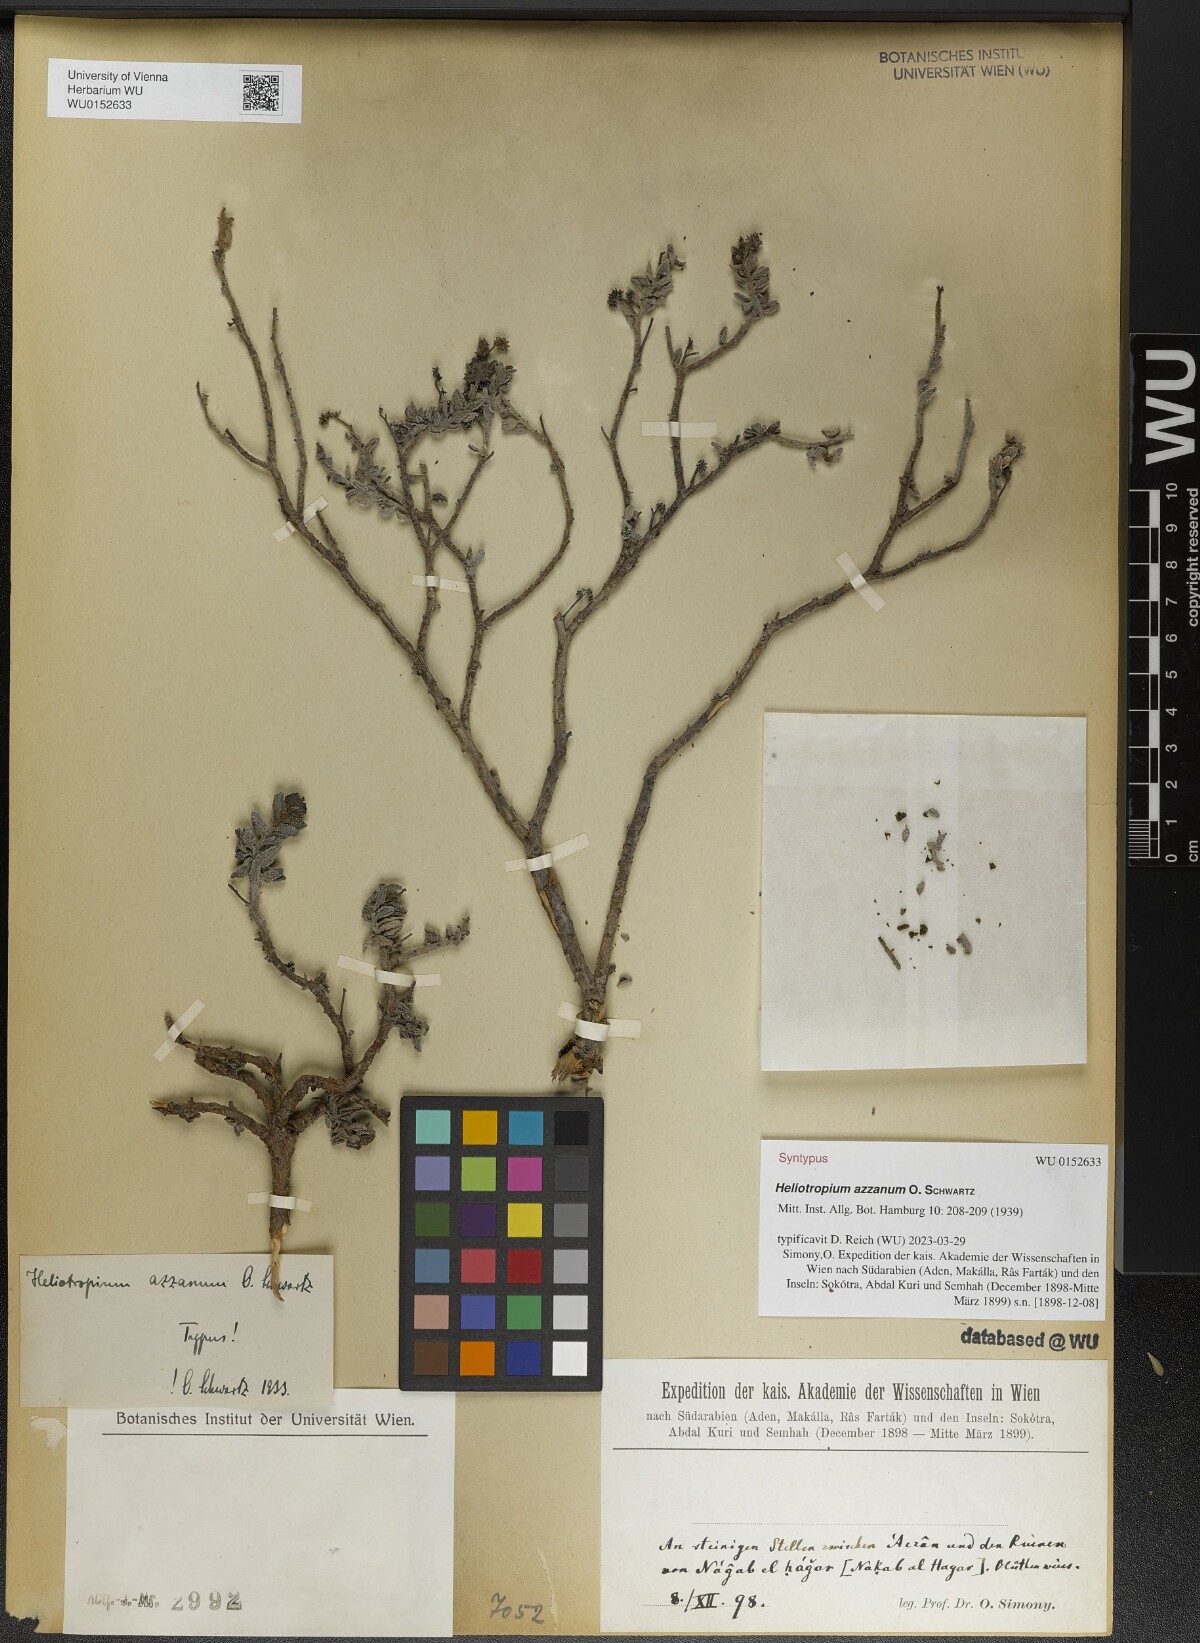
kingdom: Plantae
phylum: Tracheophyta
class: Magnoliopsida
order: Boraginales
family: Heliotropiaceae
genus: Heliotropium
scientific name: Heliotropium azzanum
